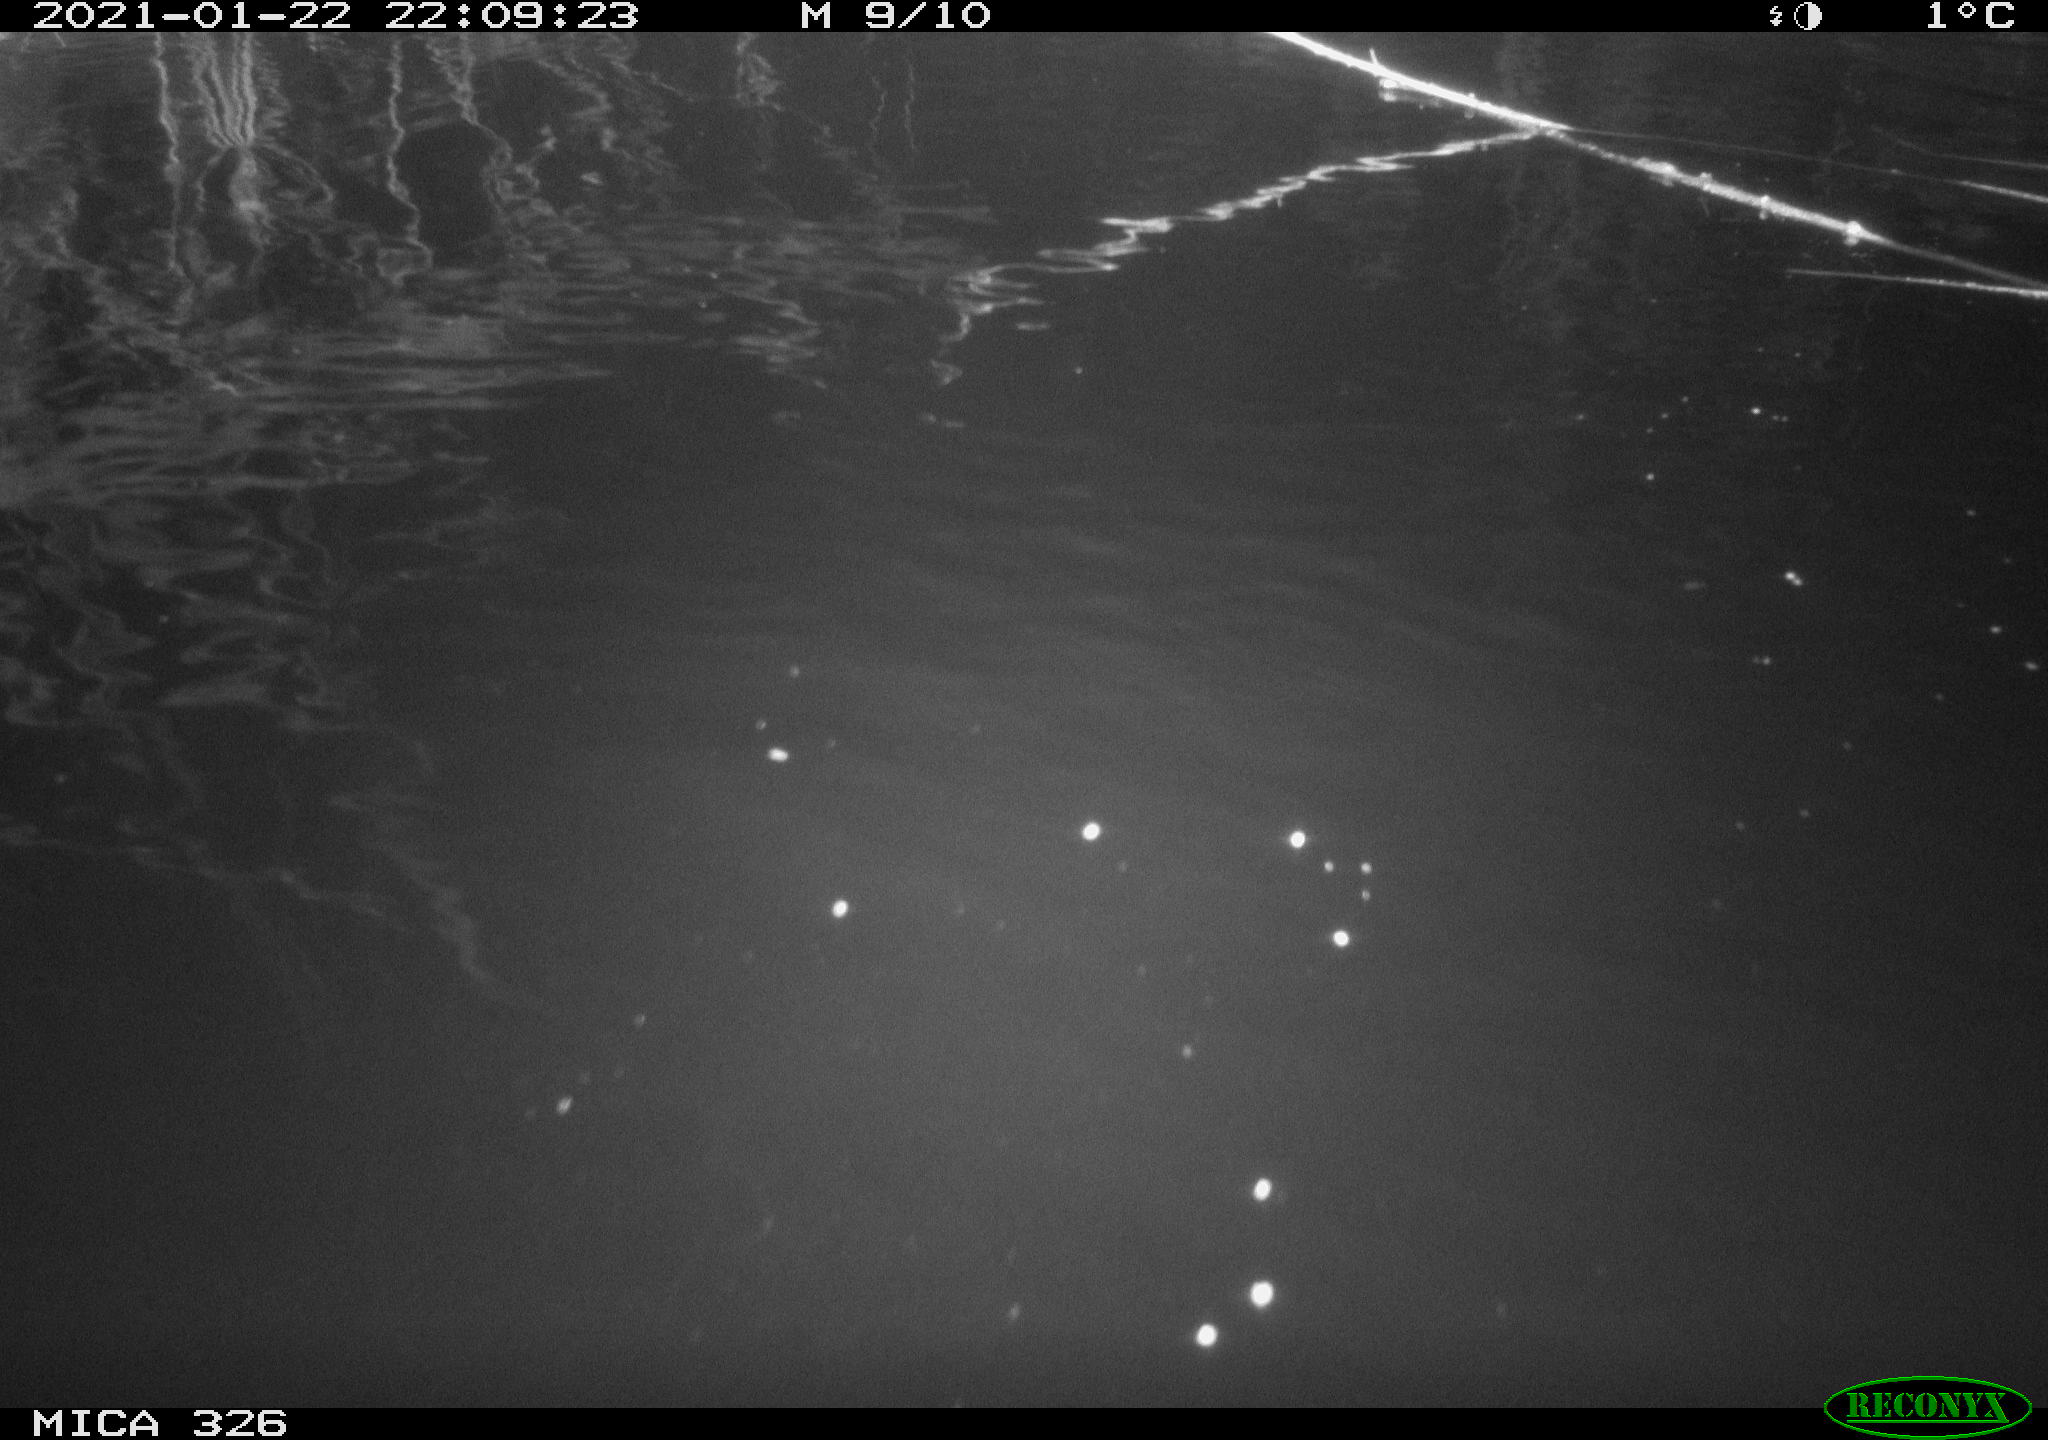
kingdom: Animalia
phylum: Chordata
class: Mammalia
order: Rodentia
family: Cricetidae
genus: Ondatra
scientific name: Ondatra zibethicus
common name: Muskrat
